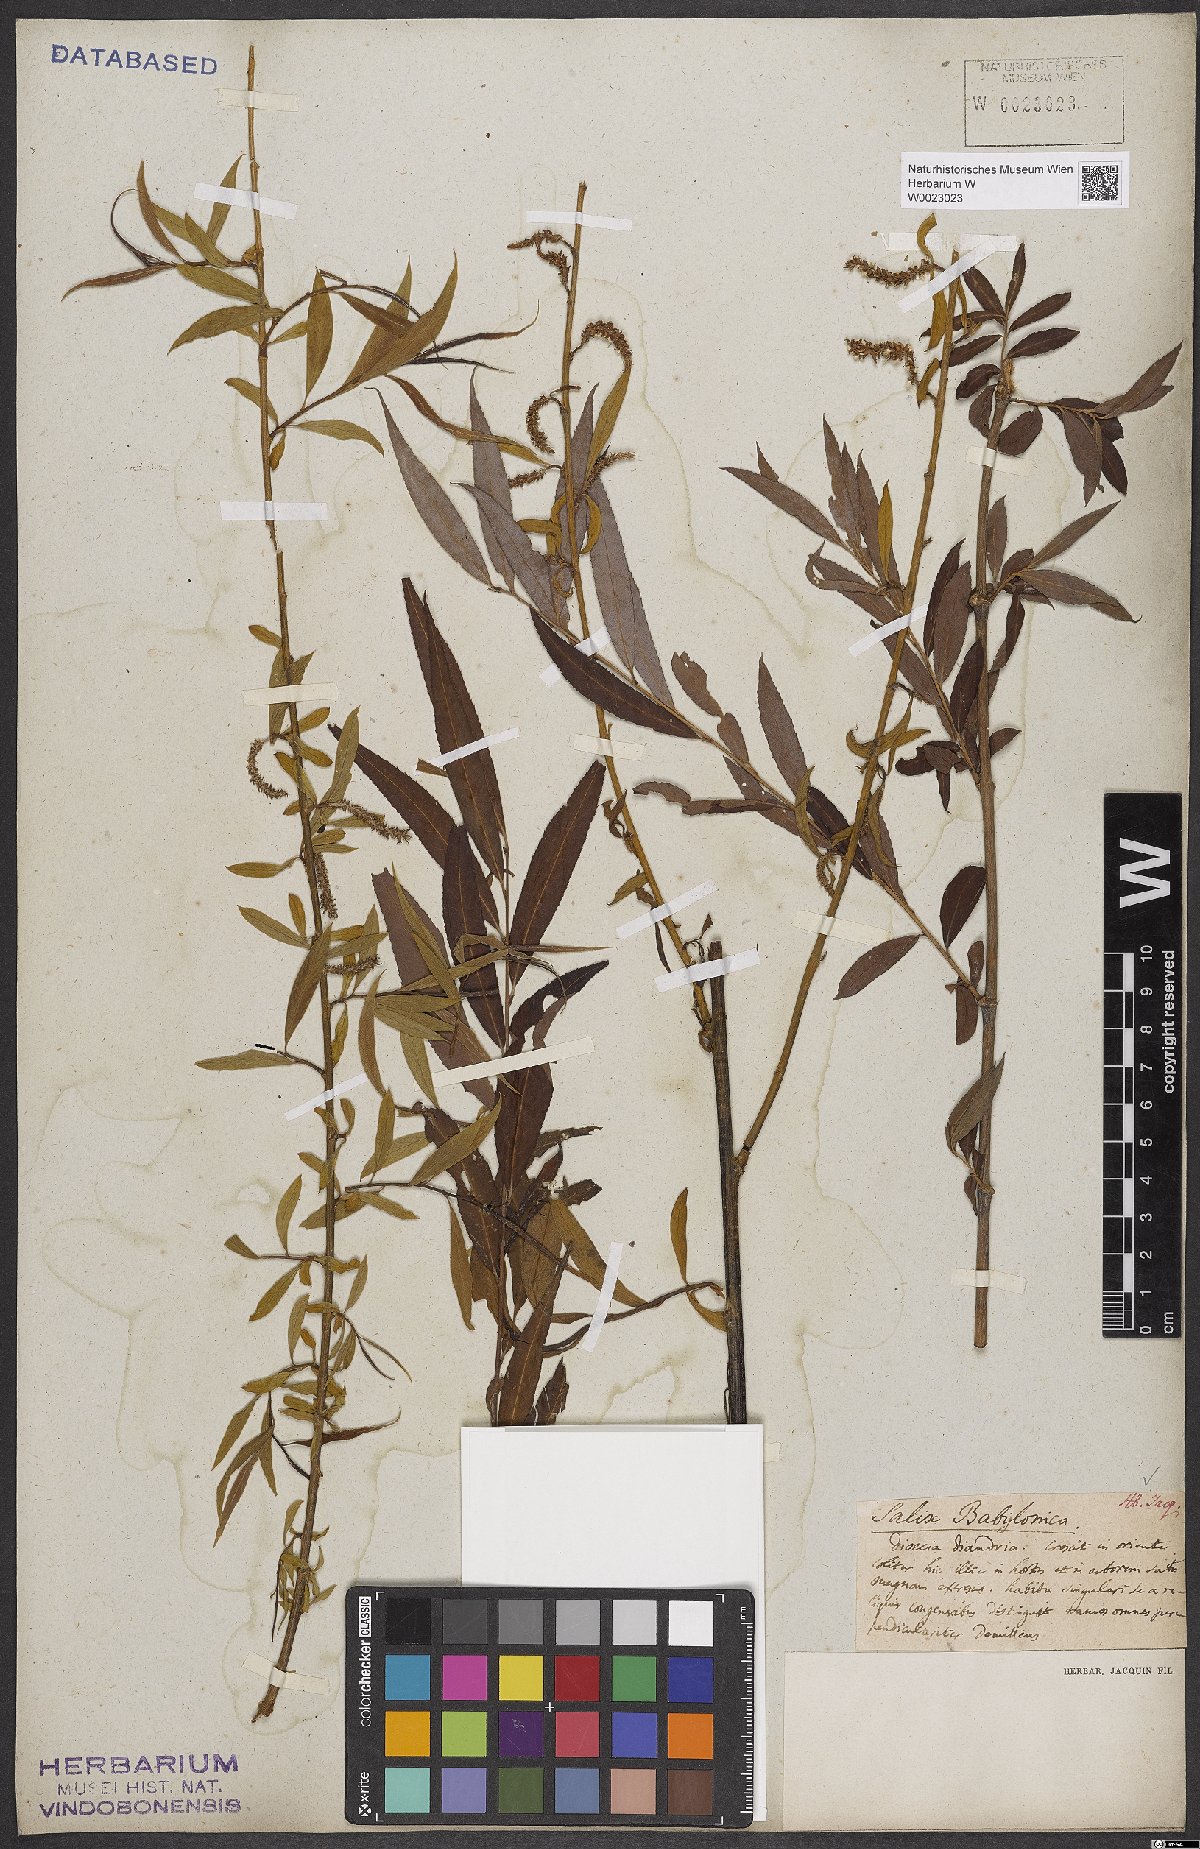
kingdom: Plantae
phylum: Tracheophyta
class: Magnoliopsida
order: Malpighiales
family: Salicaceae
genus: Salix
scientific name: Salix babylonica
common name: Weeping willow
